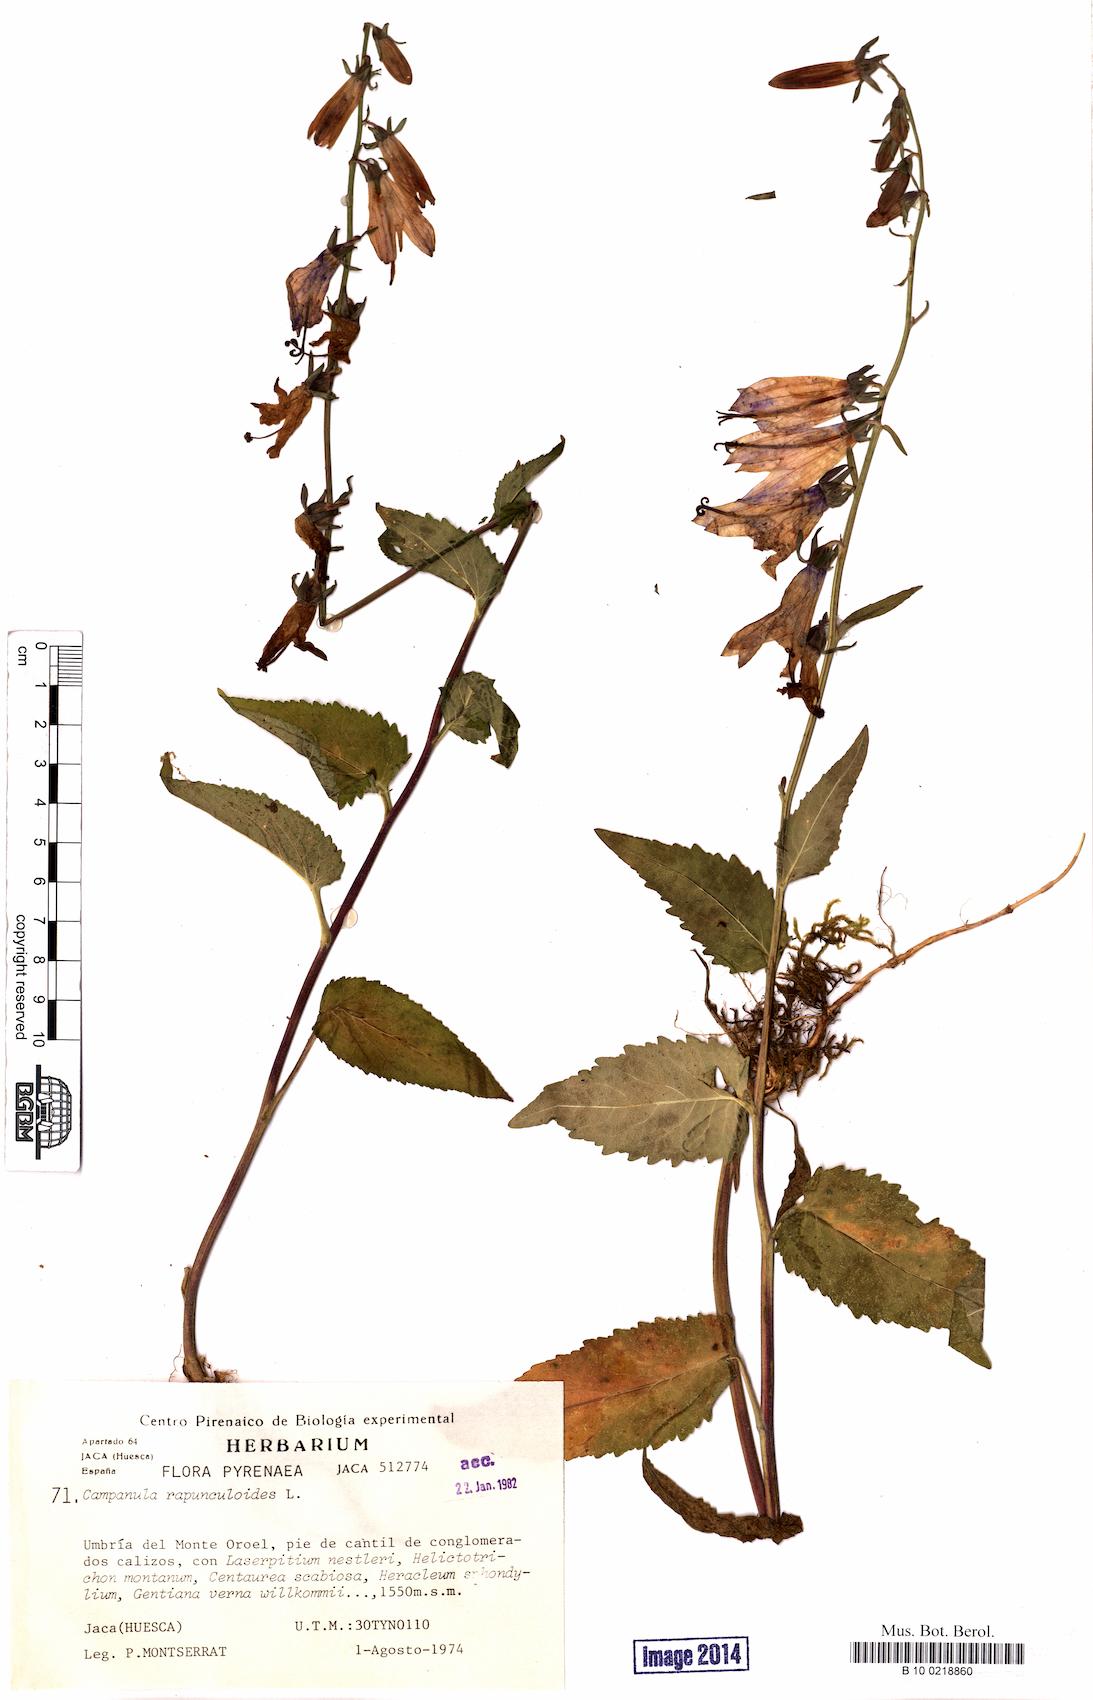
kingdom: Plantae
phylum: Tracheophyta
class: Magnoliopsida
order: Asterales
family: Campanulaceae
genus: Campanula
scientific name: Campanula rapunculoides
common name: Creeping bellflower
